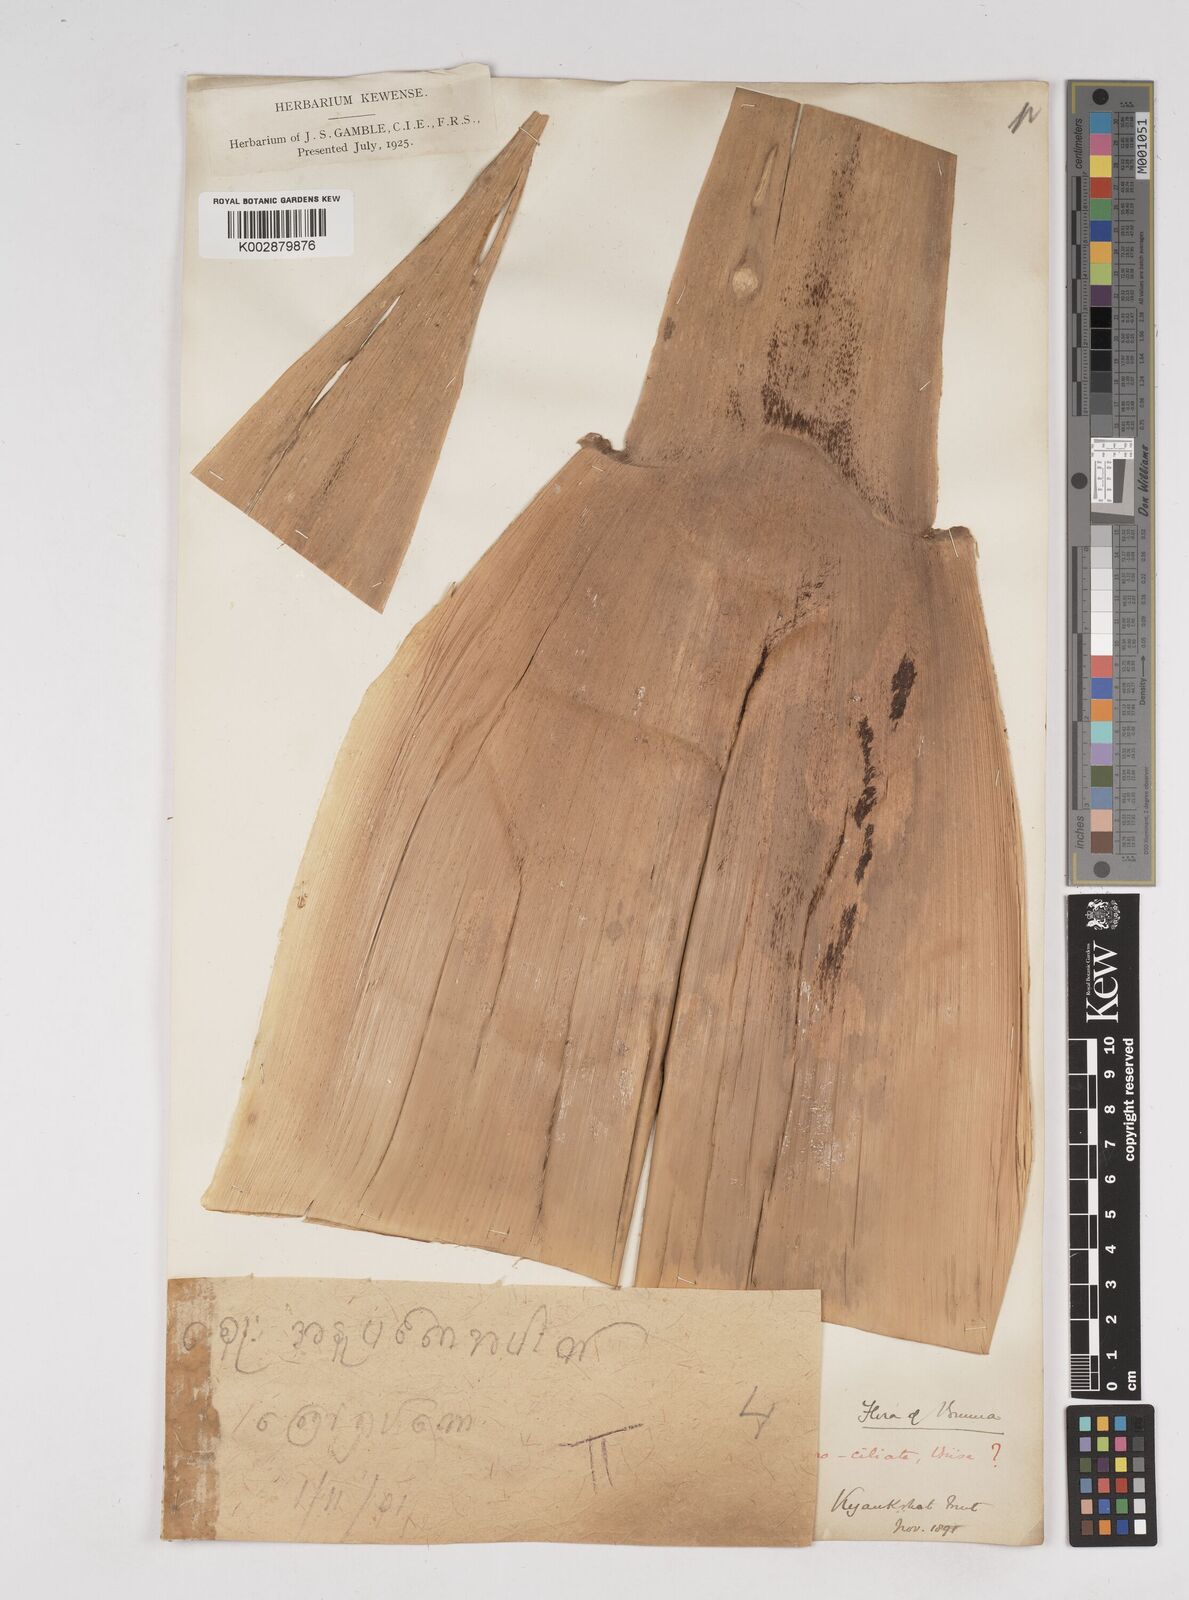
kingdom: Plantae
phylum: Tracheophyta
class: Liliopsida
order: Poales
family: Poaceae
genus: Gigantochloa
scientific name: Gigantochloa
